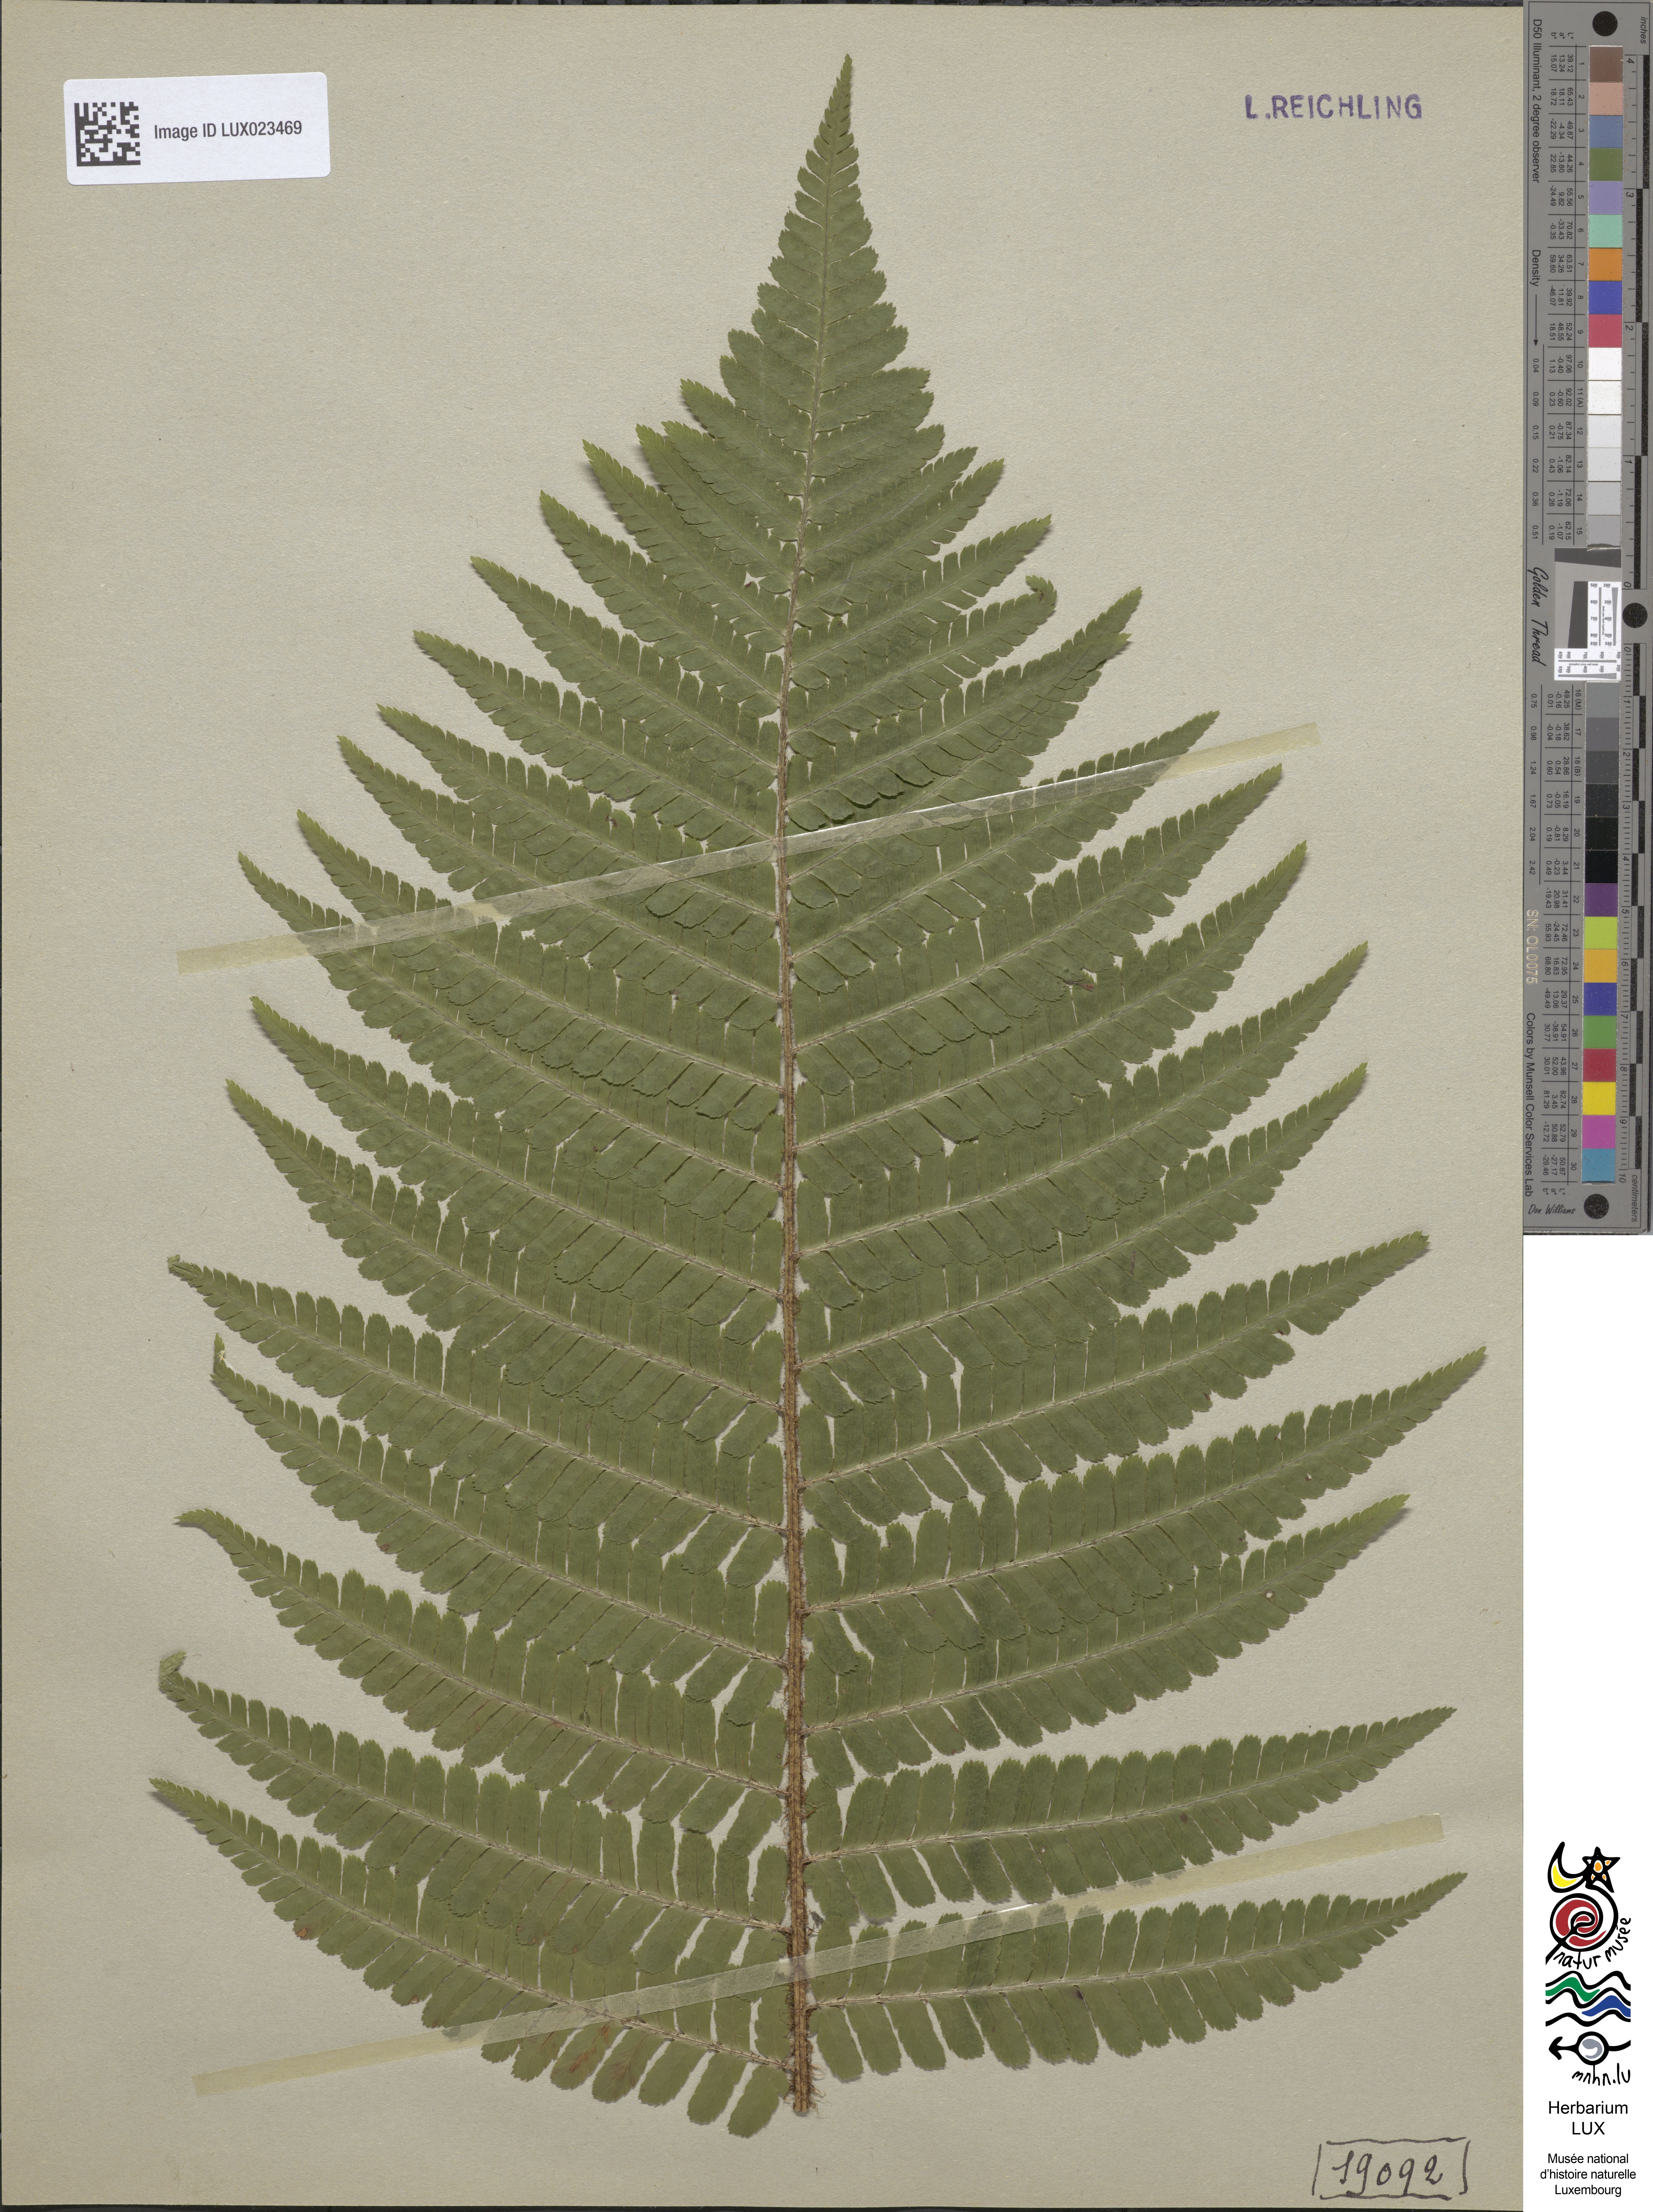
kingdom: Plantae
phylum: Tracheophyta
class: Polypodiopsida
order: Polypodiales
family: Dryopteridaceae
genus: Dryopteris
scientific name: Dryopteris borreri
